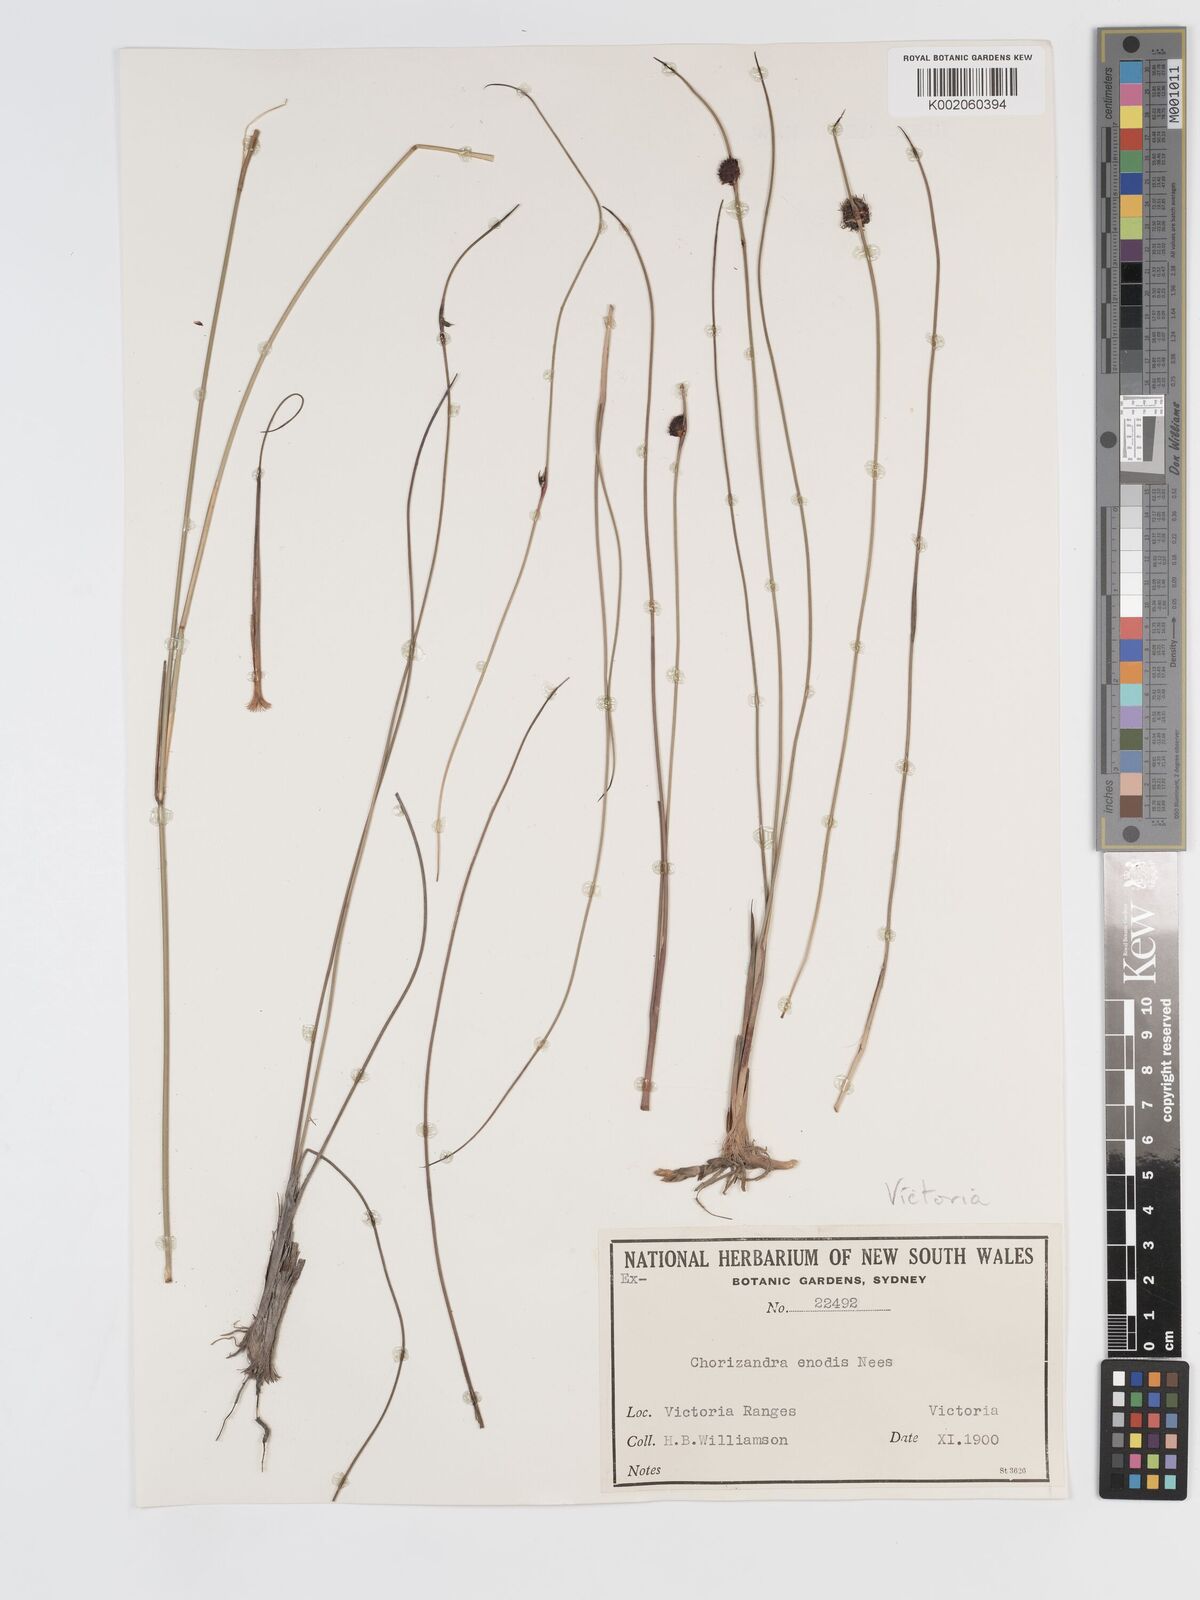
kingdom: Plantae
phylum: Tracheophyta
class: Liliopsida
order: Poales
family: Cyperaceae
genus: Chorizandra
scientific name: Chorizandra enodis
